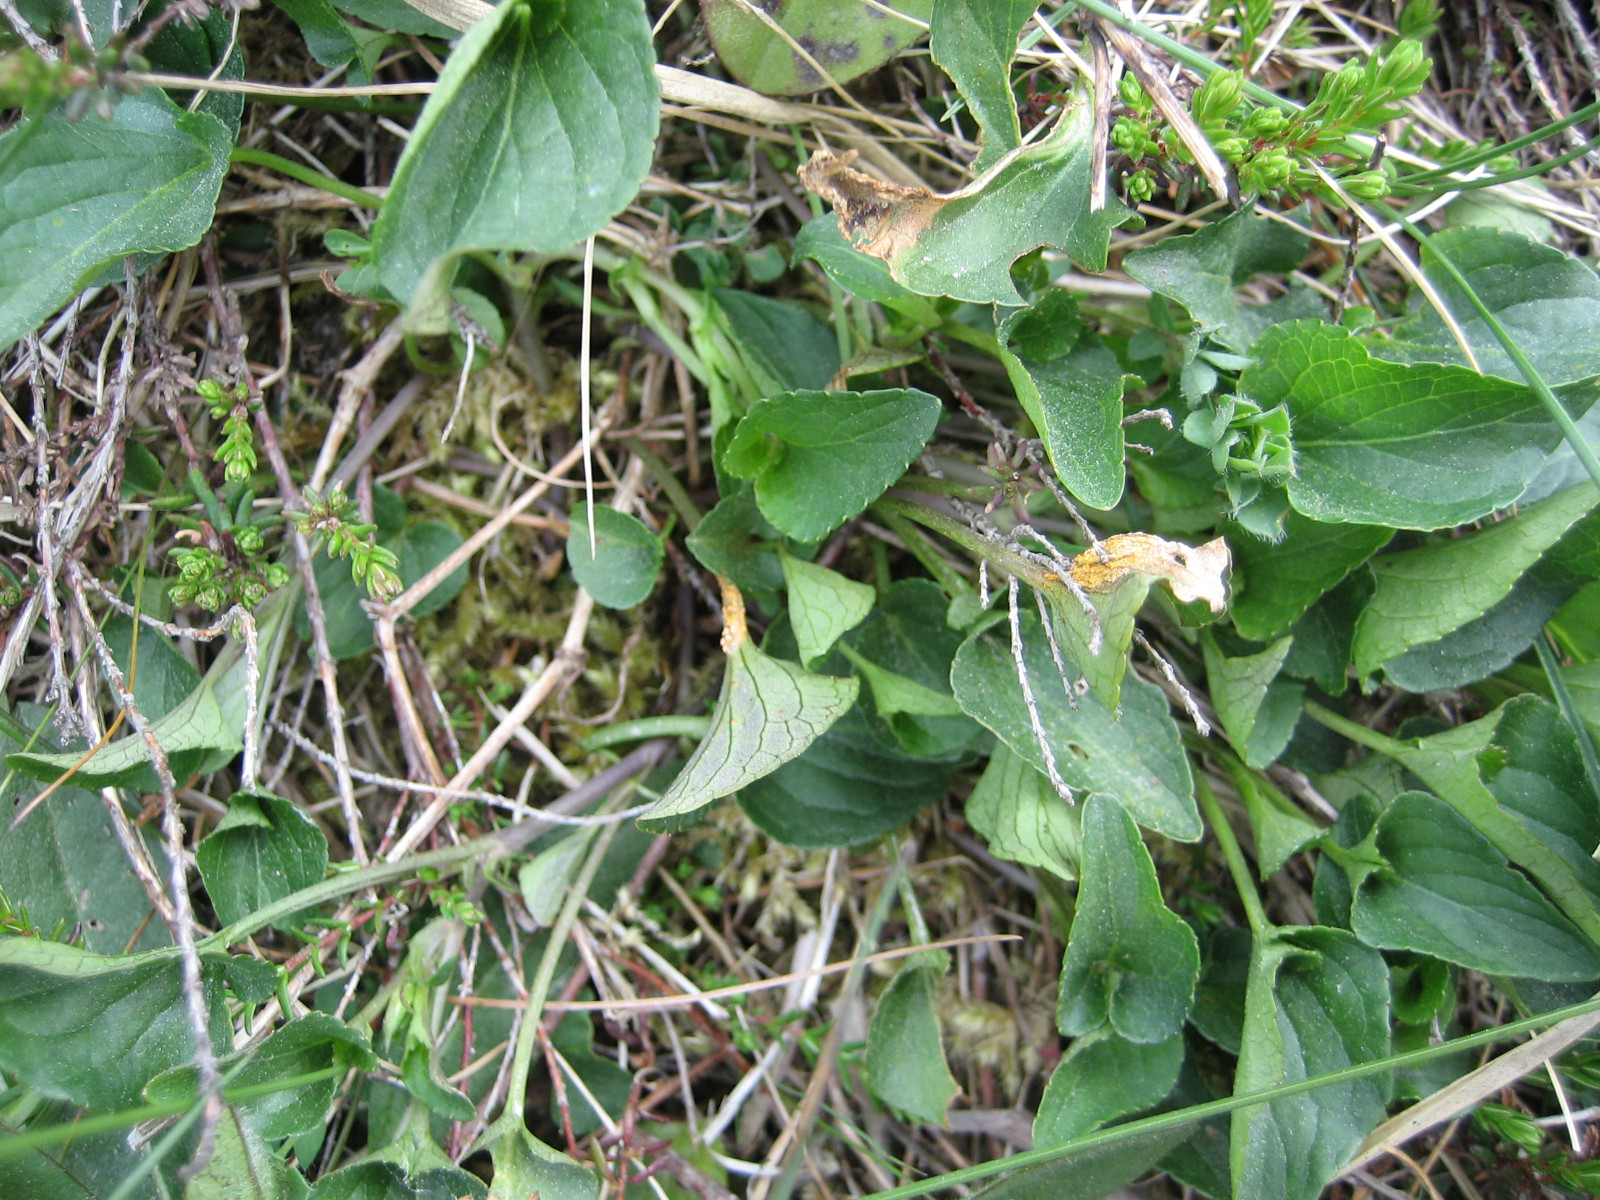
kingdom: Fungi
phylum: Basidiomycota
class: Pucciniomycetes
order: Pucciniales
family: Pucciniaceae
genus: Puccinia
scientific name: Puccinia violae
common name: viol-tvecellerust
